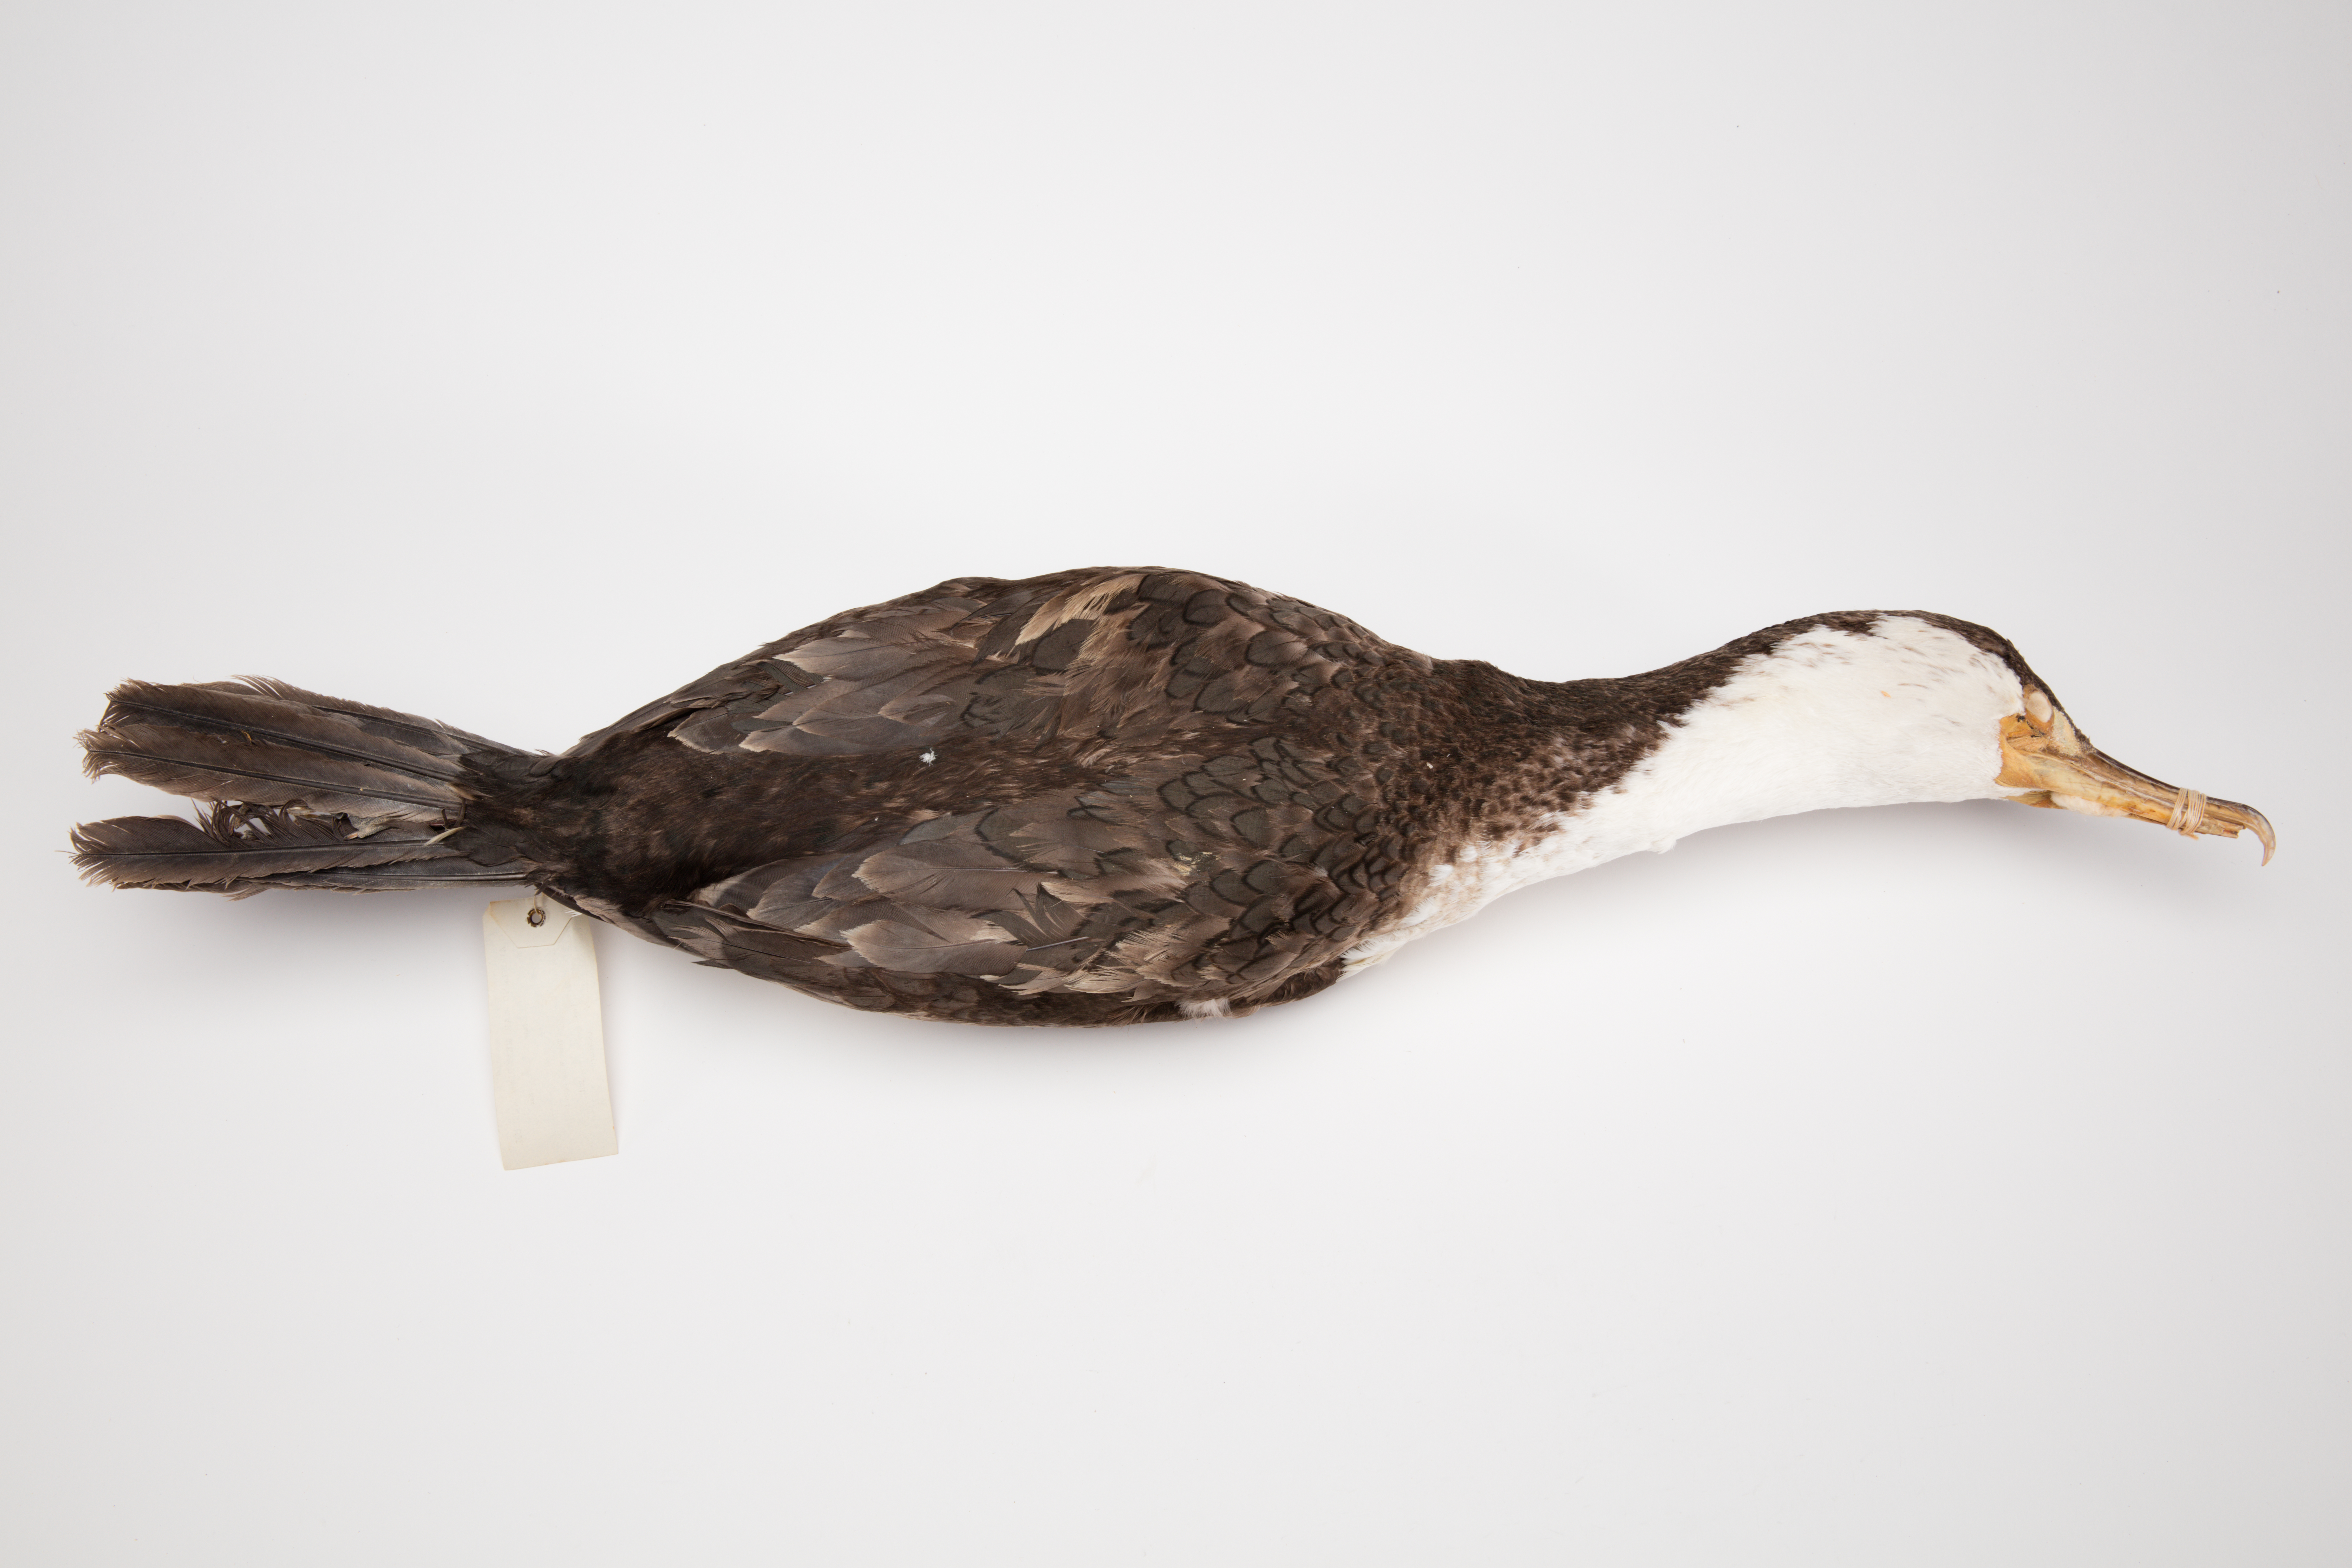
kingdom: Animalia
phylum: Chordata
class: Aves
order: Suliformes
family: Phalacrocoracidae
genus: Phalacrocorax
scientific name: Phalacrocorax varius
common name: Pied cormorant
